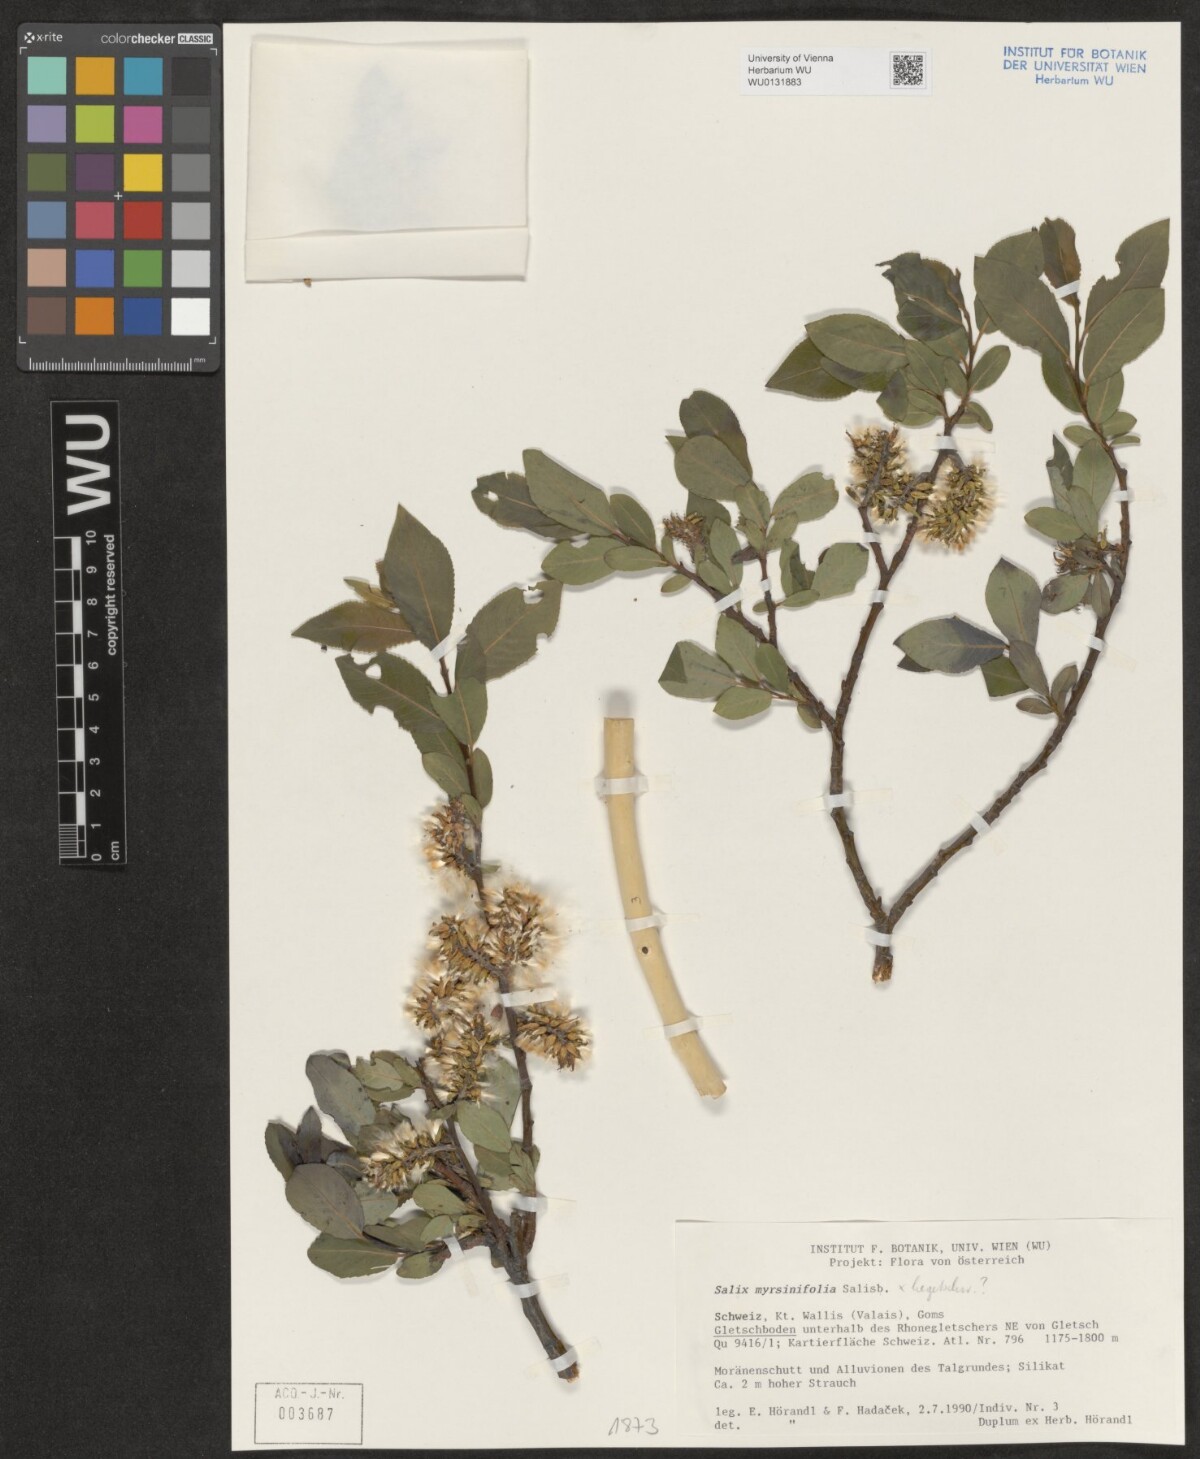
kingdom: Plantae
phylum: Tracheophyta
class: Magnoliopsida
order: Malpighiales
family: Salicaceae
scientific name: Salicaceae
